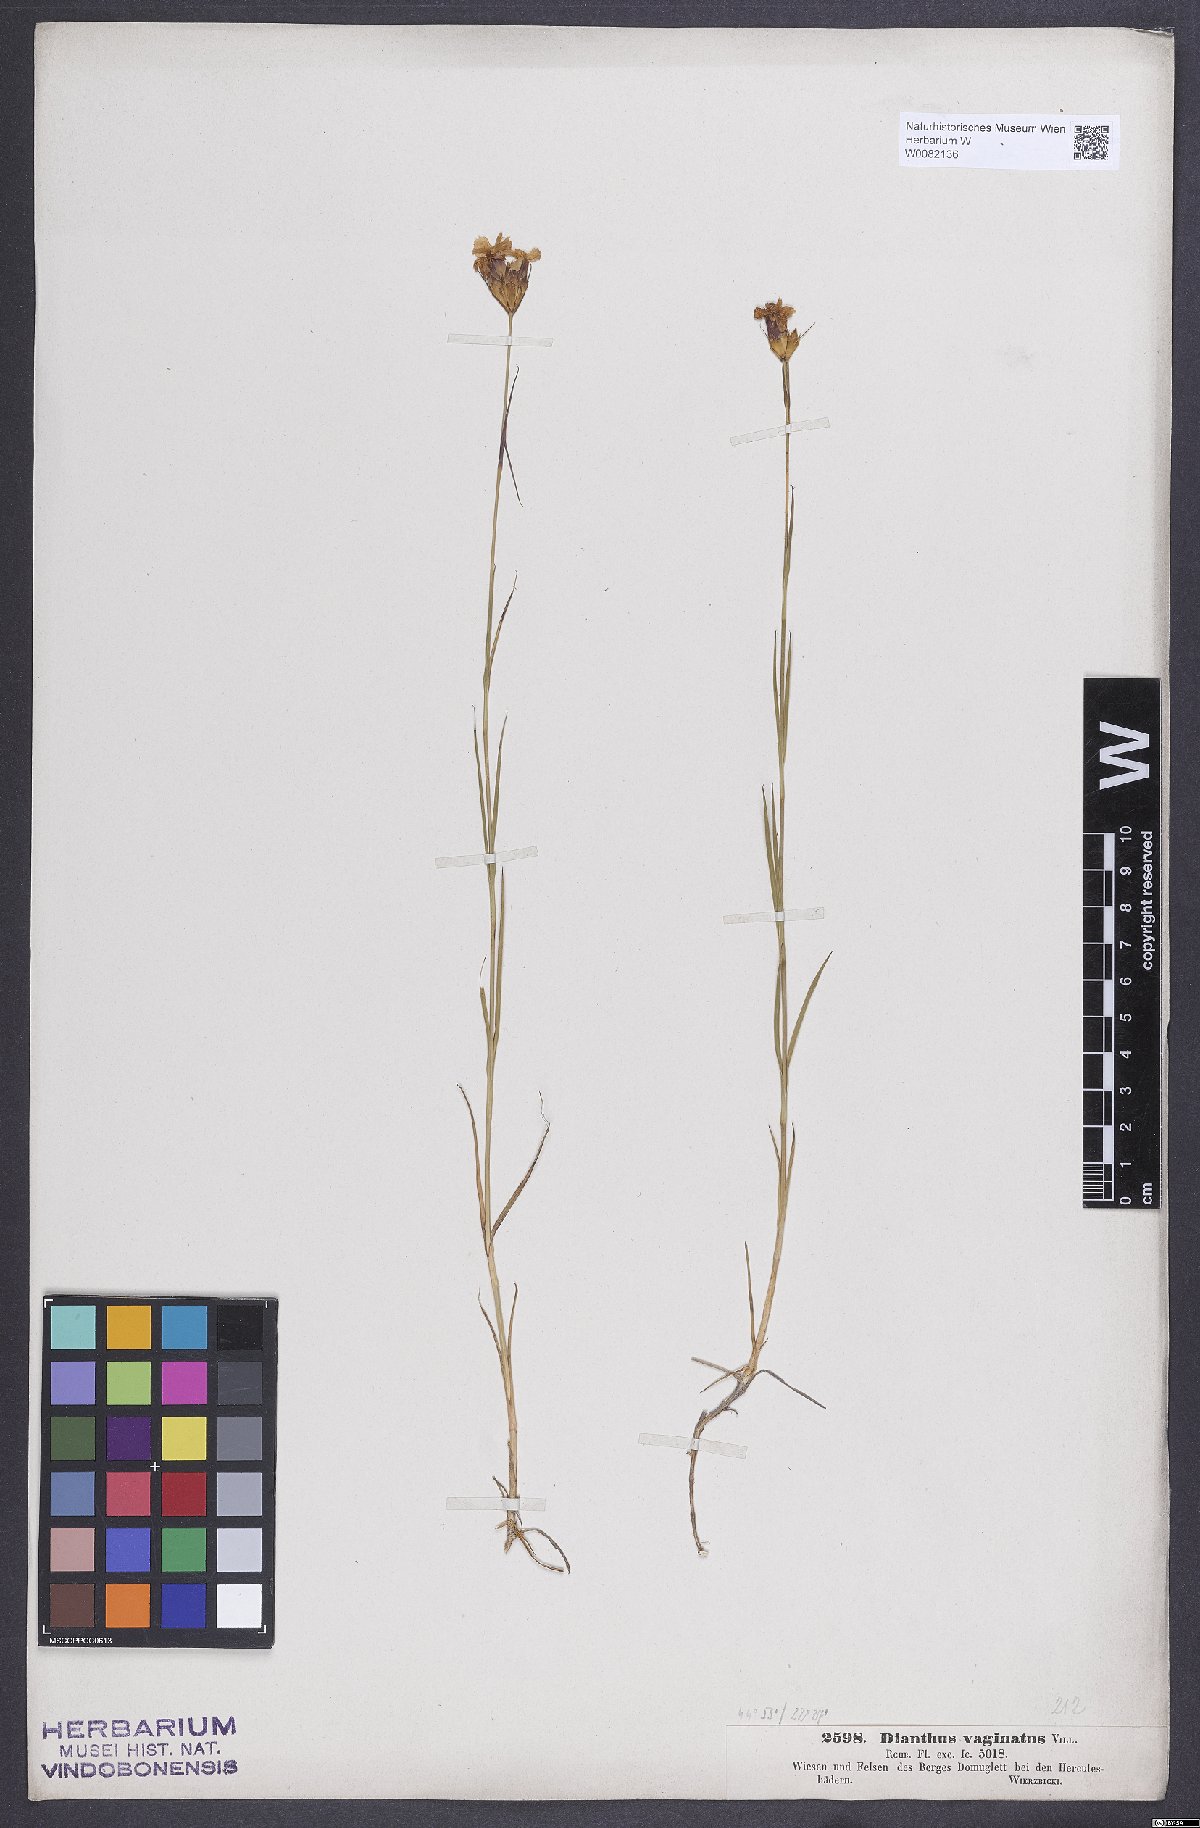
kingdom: Plantae
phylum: Tracheophyta
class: Magnoliopsida
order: Caryophyllales
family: Caryophyllaceae
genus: Dianthus
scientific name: Dianthus carthusianorum
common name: Carthusian pink
